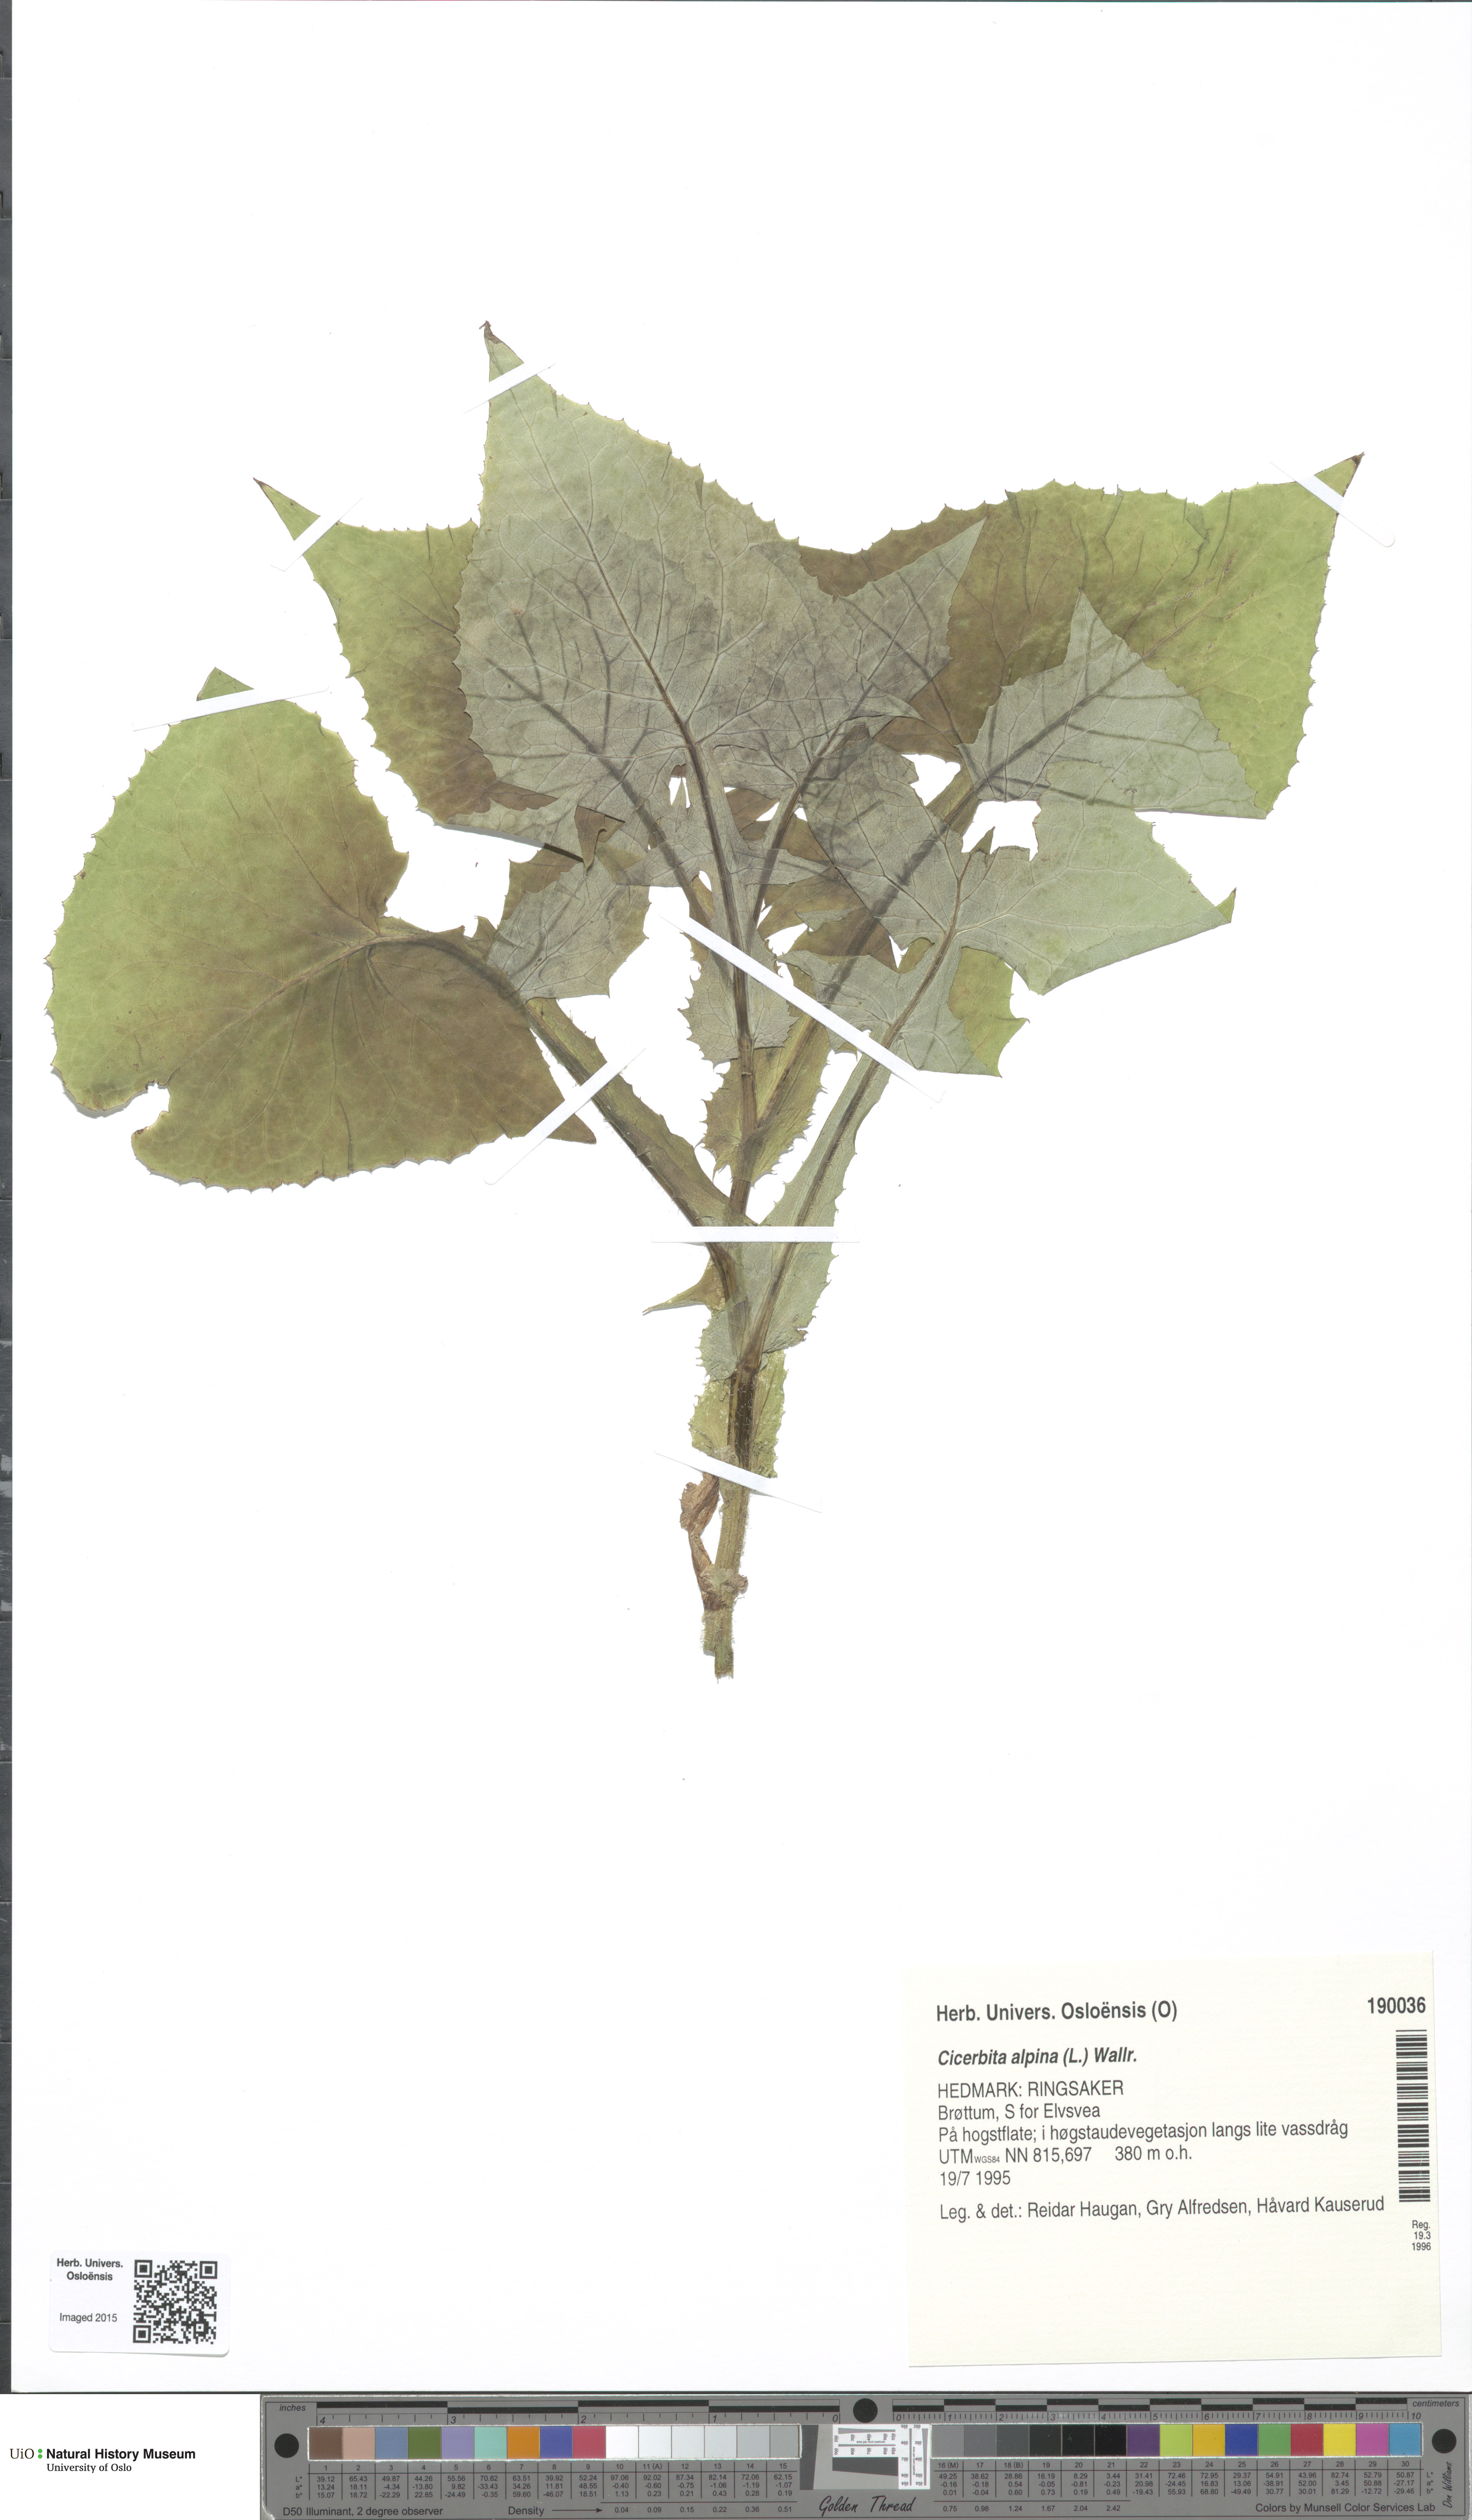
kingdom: Plantae
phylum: Tracheophyta
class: Magnoliopsida
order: Asterales
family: Asteraceae
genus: Cicerbita
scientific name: Cicerbita alpina
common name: Alpine blue-sow-thistle
